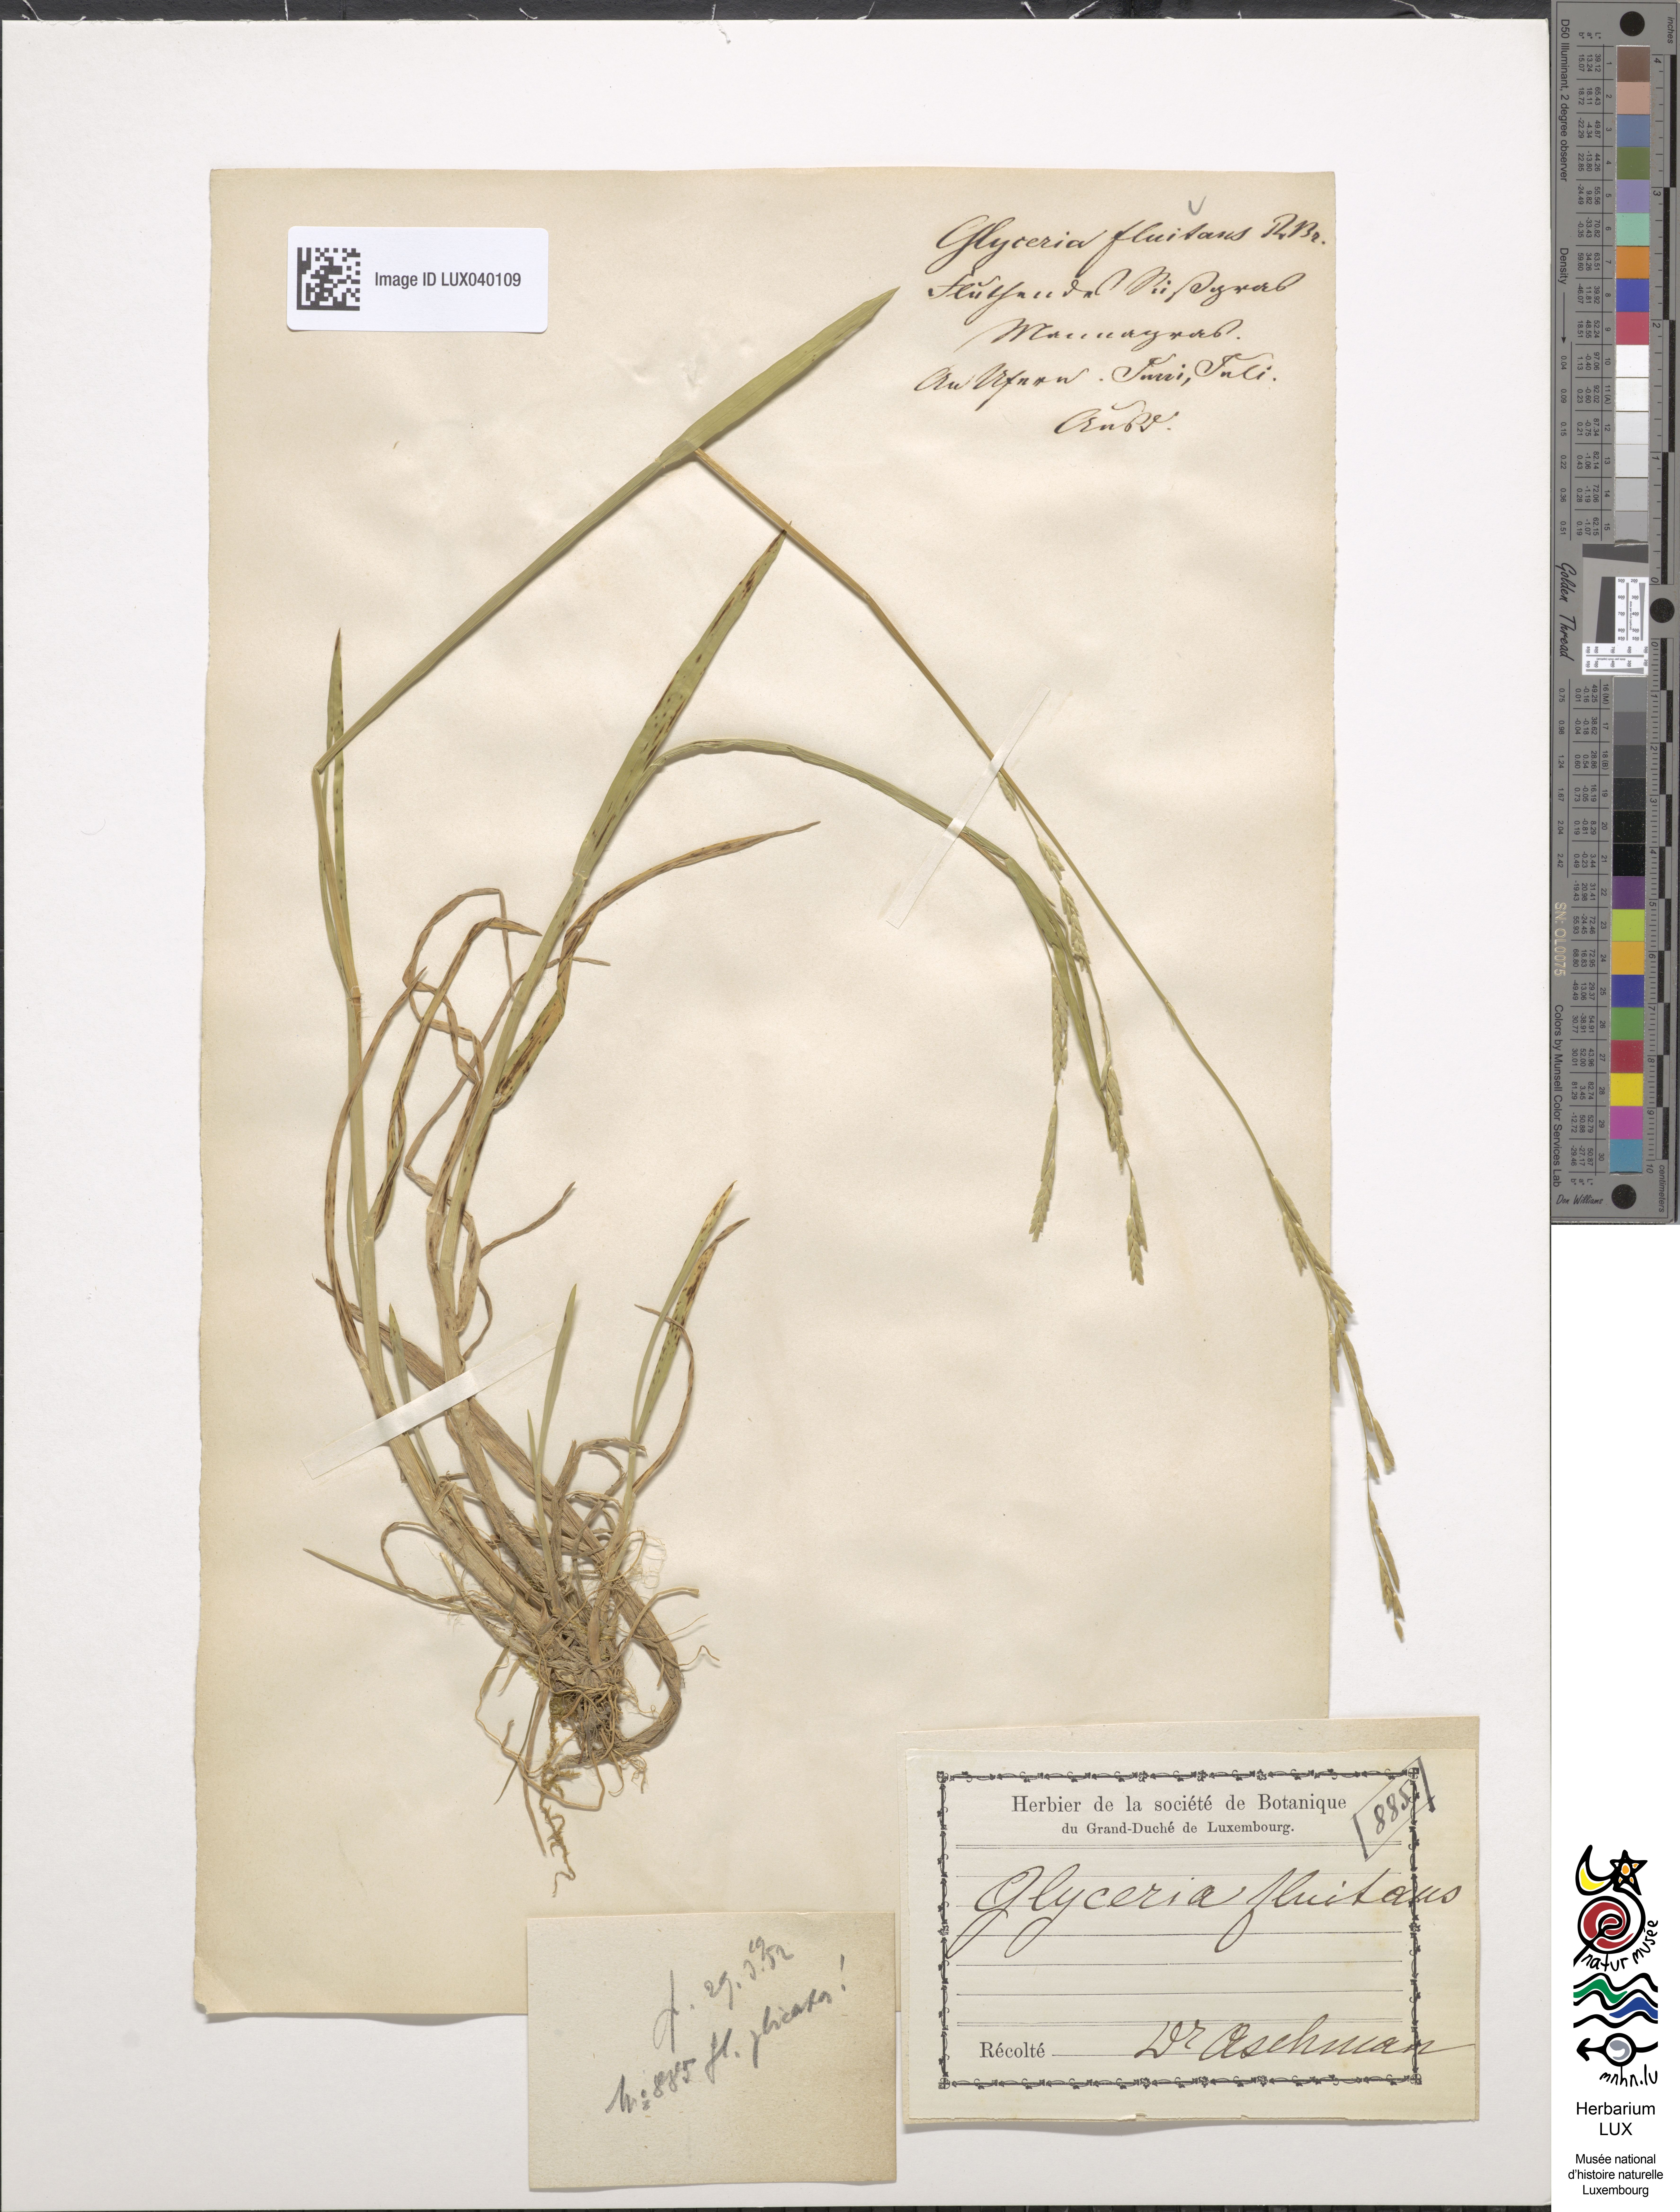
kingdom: Plantae
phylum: Tracheophyta
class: Liliopsida
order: Poales
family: Poaceae
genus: Glyceria
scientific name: Glyceria fluitans
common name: Floating sweet-grass
